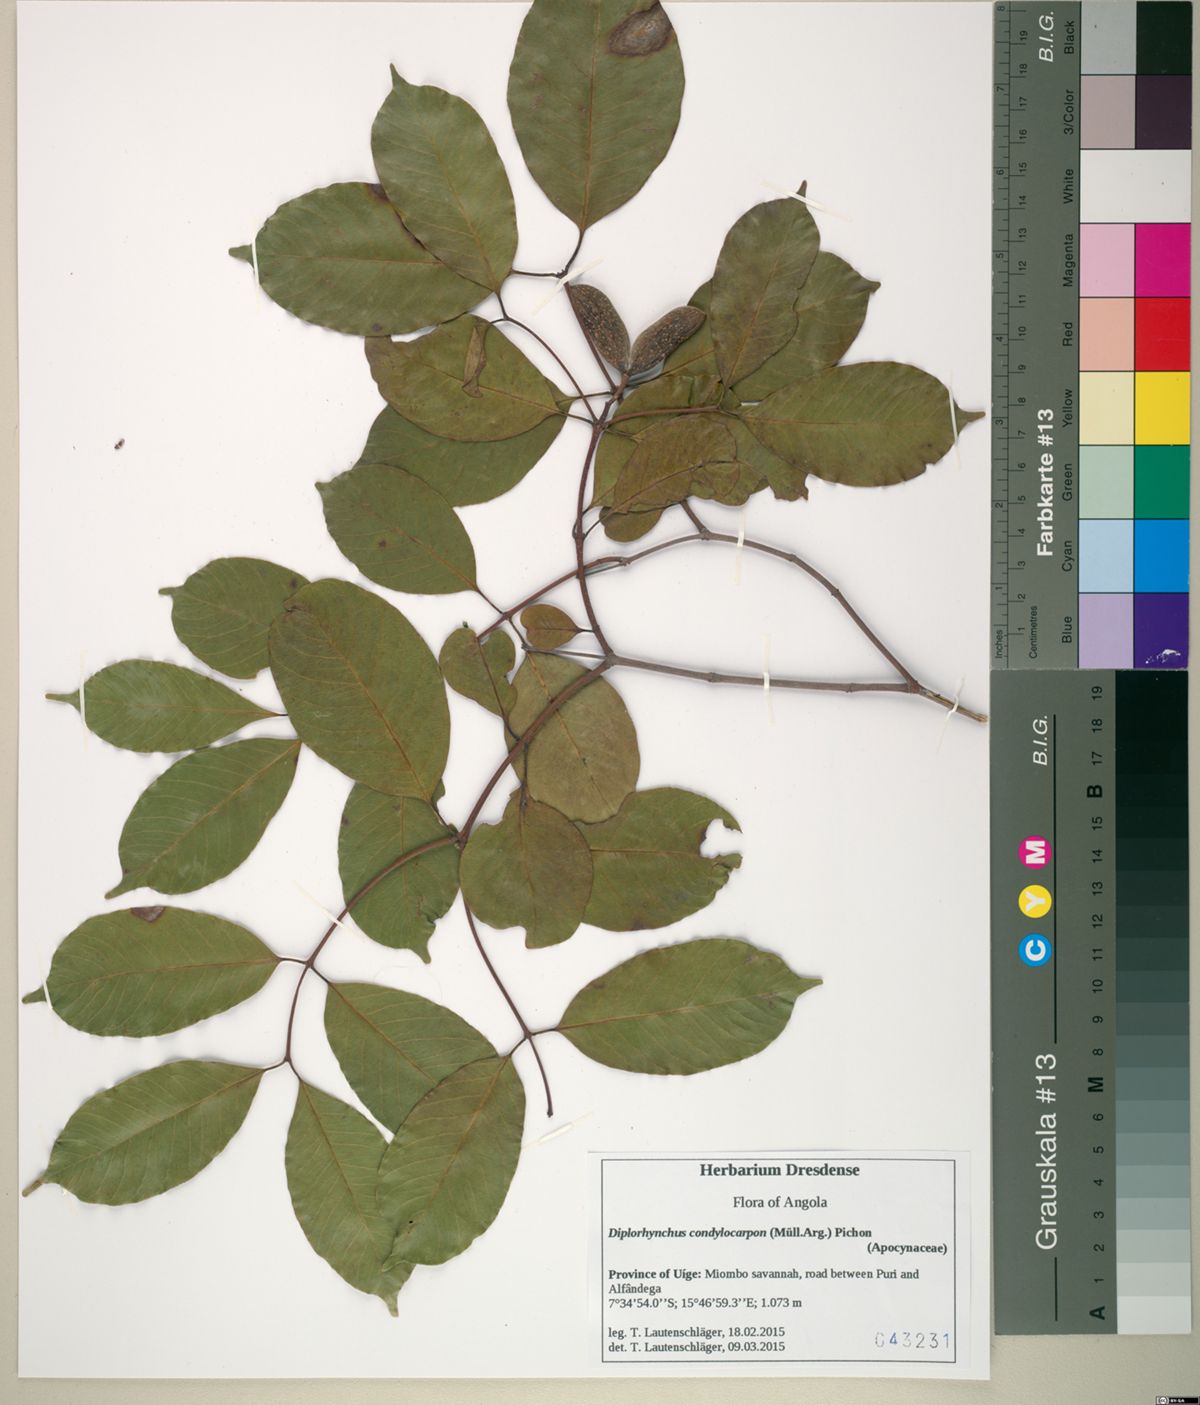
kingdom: Plantae
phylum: Tracheophyta
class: Magnoliopsida
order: Gentianales
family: Apocynaceae
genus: Diplorhynchus
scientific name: Diplorhynchus condylocarpon
